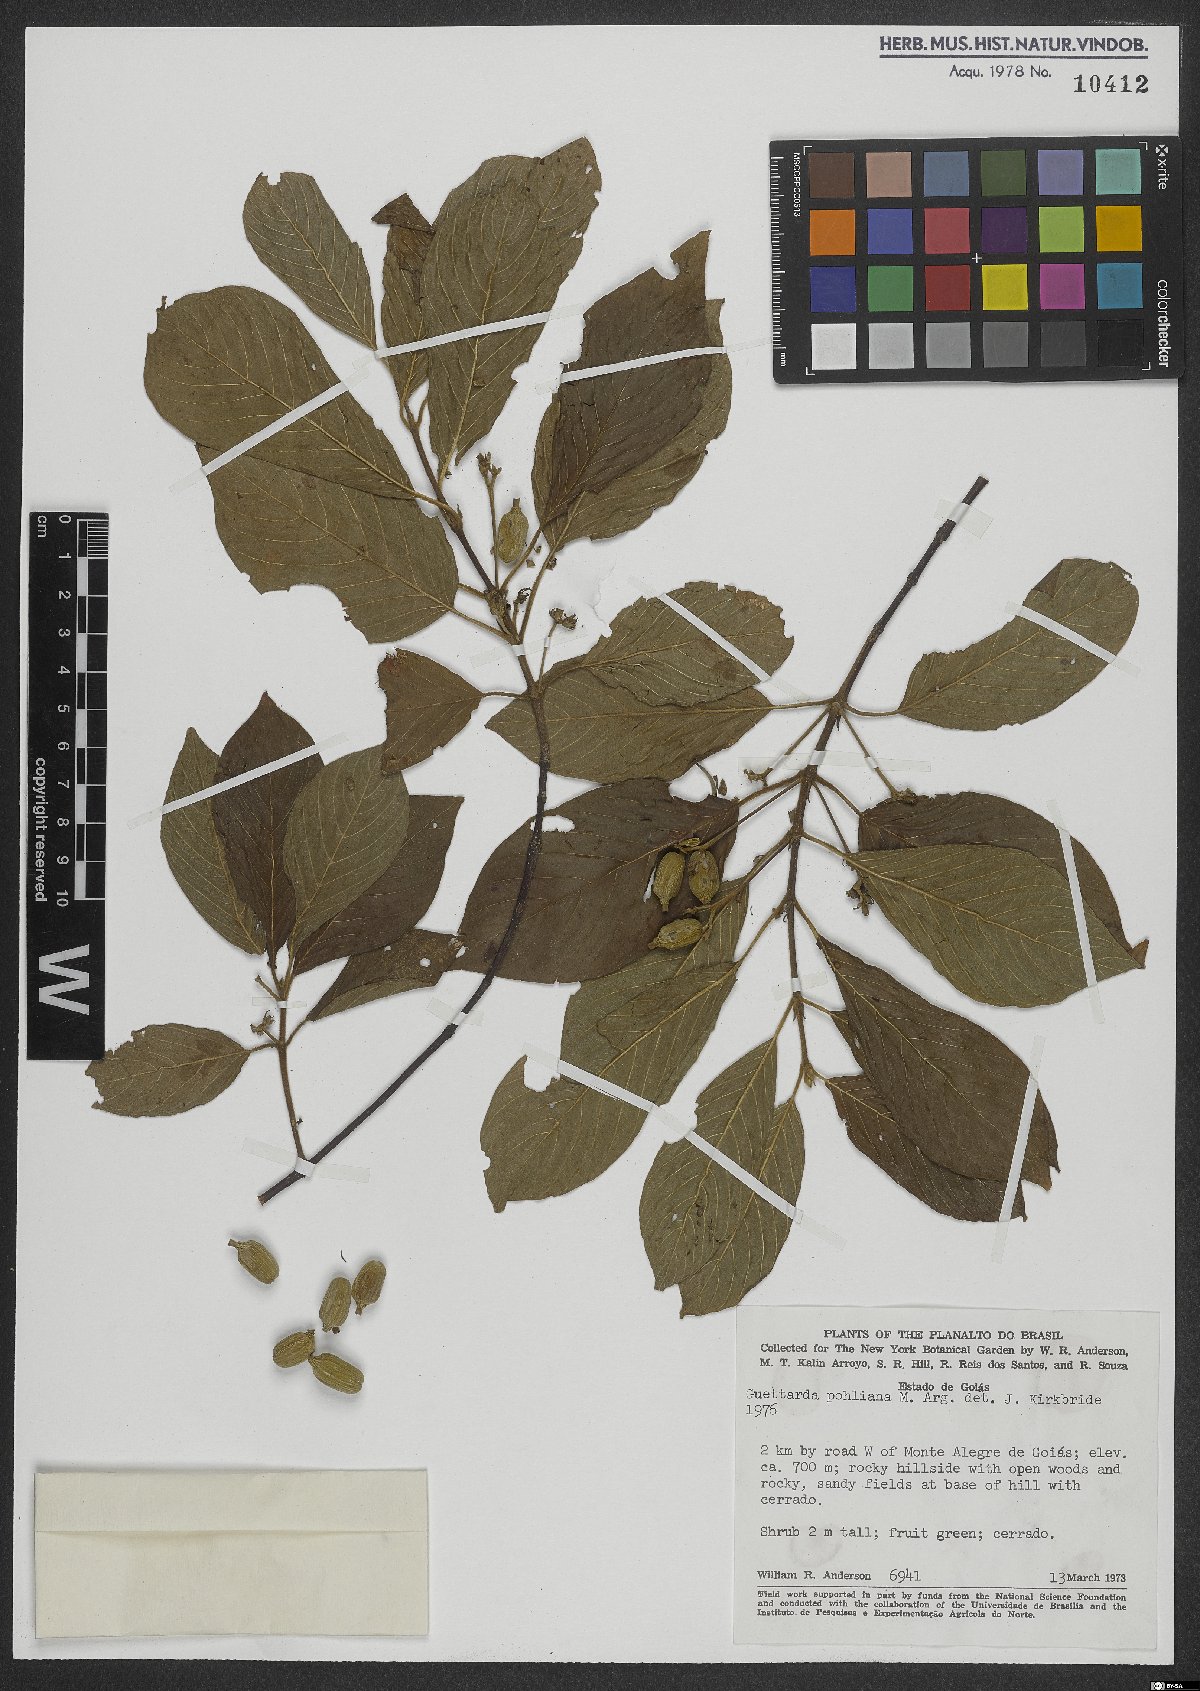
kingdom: Plantae
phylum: Tracheophyta
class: Magnoliopsida
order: Gentianales
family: Rubiaceae
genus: Guettarda
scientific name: Guettarda pohliana
